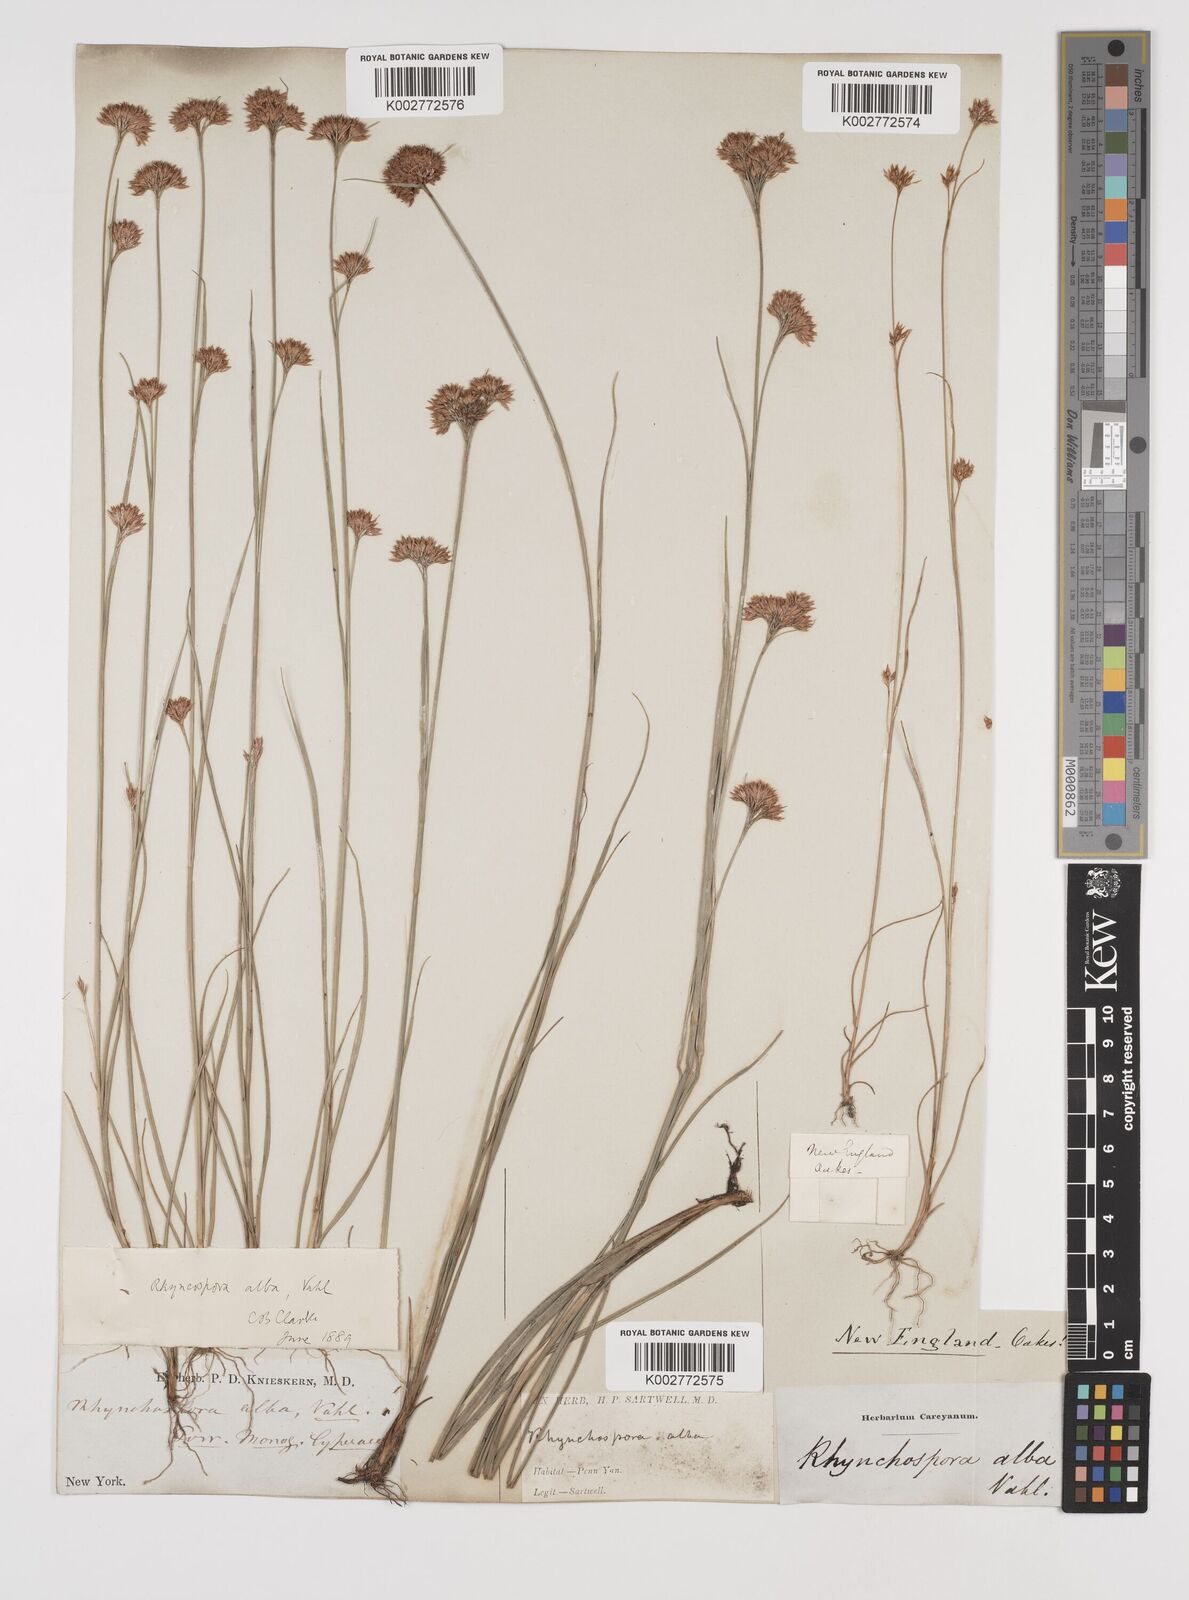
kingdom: Plantae
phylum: Tracheophyta
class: Liliopsida
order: Poales
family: Cyperaceae
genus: Rhynchospora
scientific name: Rhynchospora alba
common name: White beak-sedge
